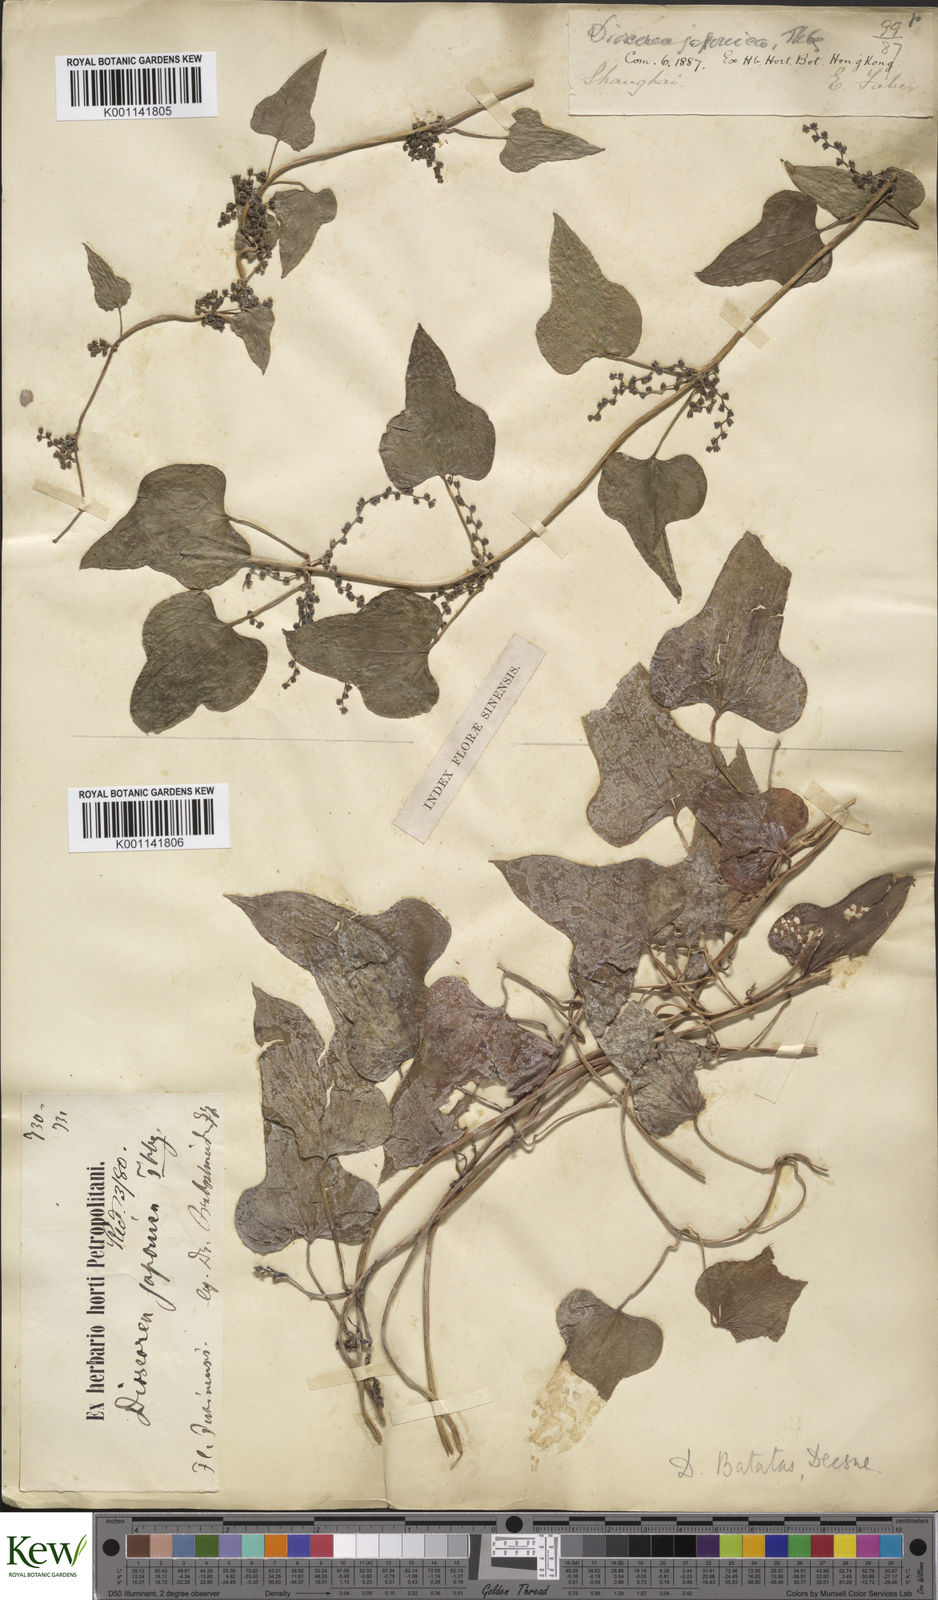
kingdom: Plantae
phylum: Tracheophyta
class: Liliopsida
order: Dioscoreales
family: Dioscoreaceae
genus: Dioscorea
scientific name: Dioscorea oppositifolia
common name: Chinese yam
